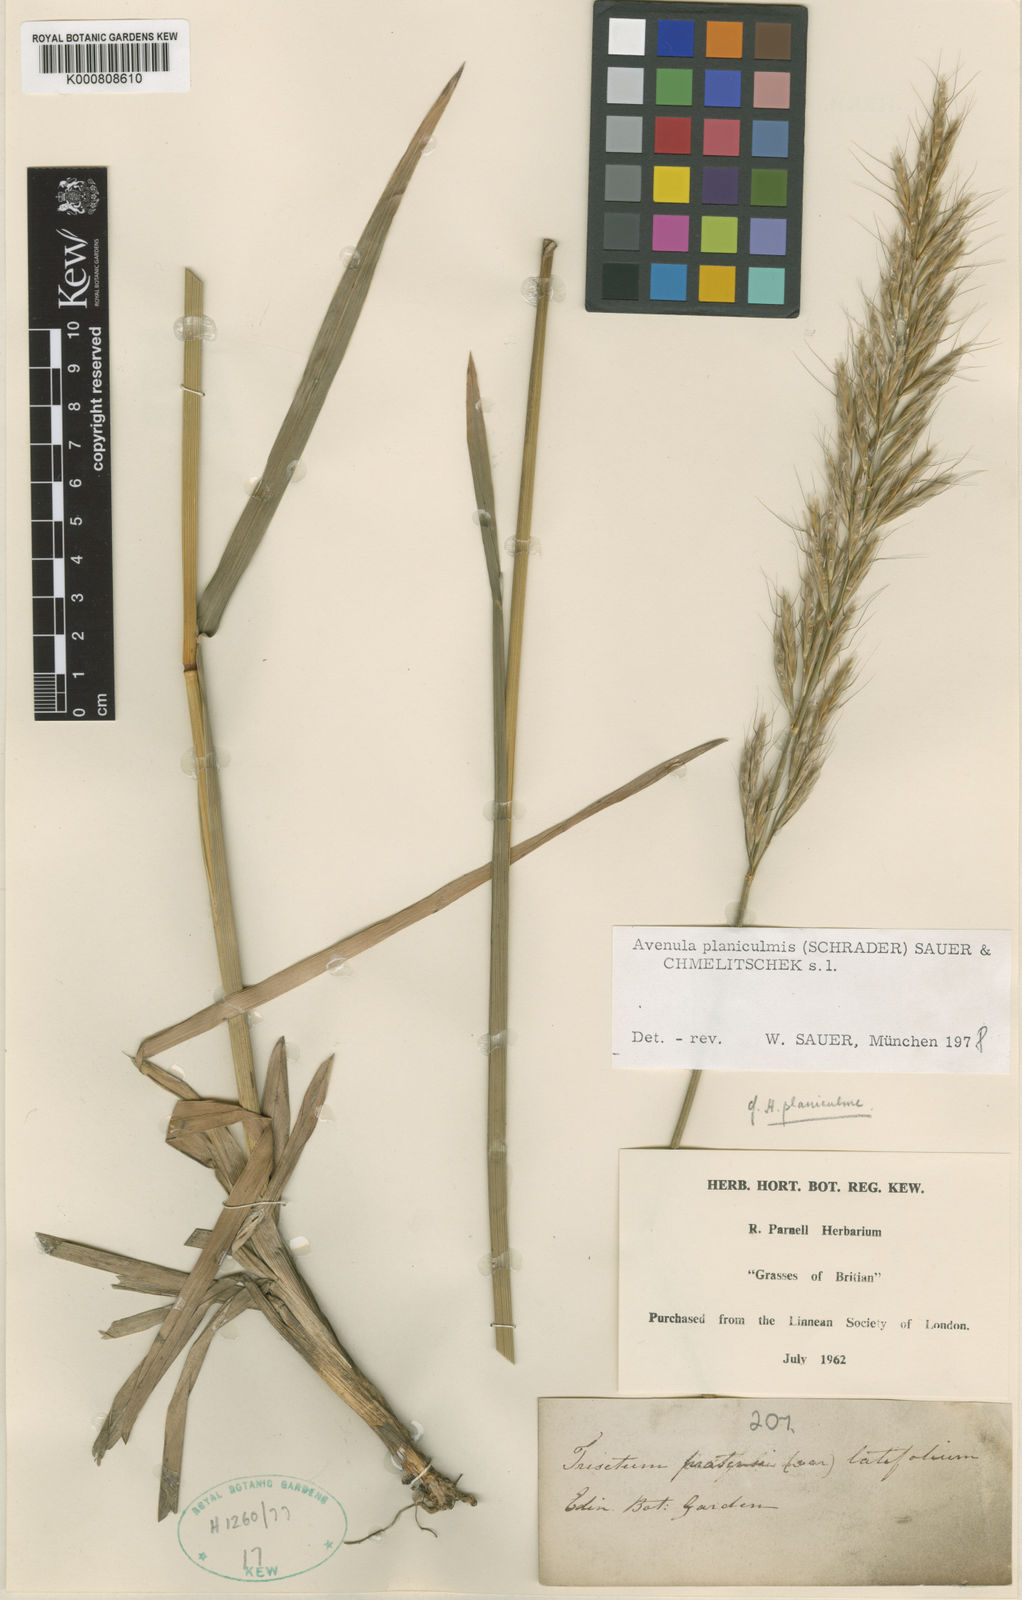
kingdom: Plantae
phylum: Tracheophyta
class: Liliopsida
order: Poales
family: Poaceae
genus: Helictochloa
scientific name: Helictochloa planiculmis
